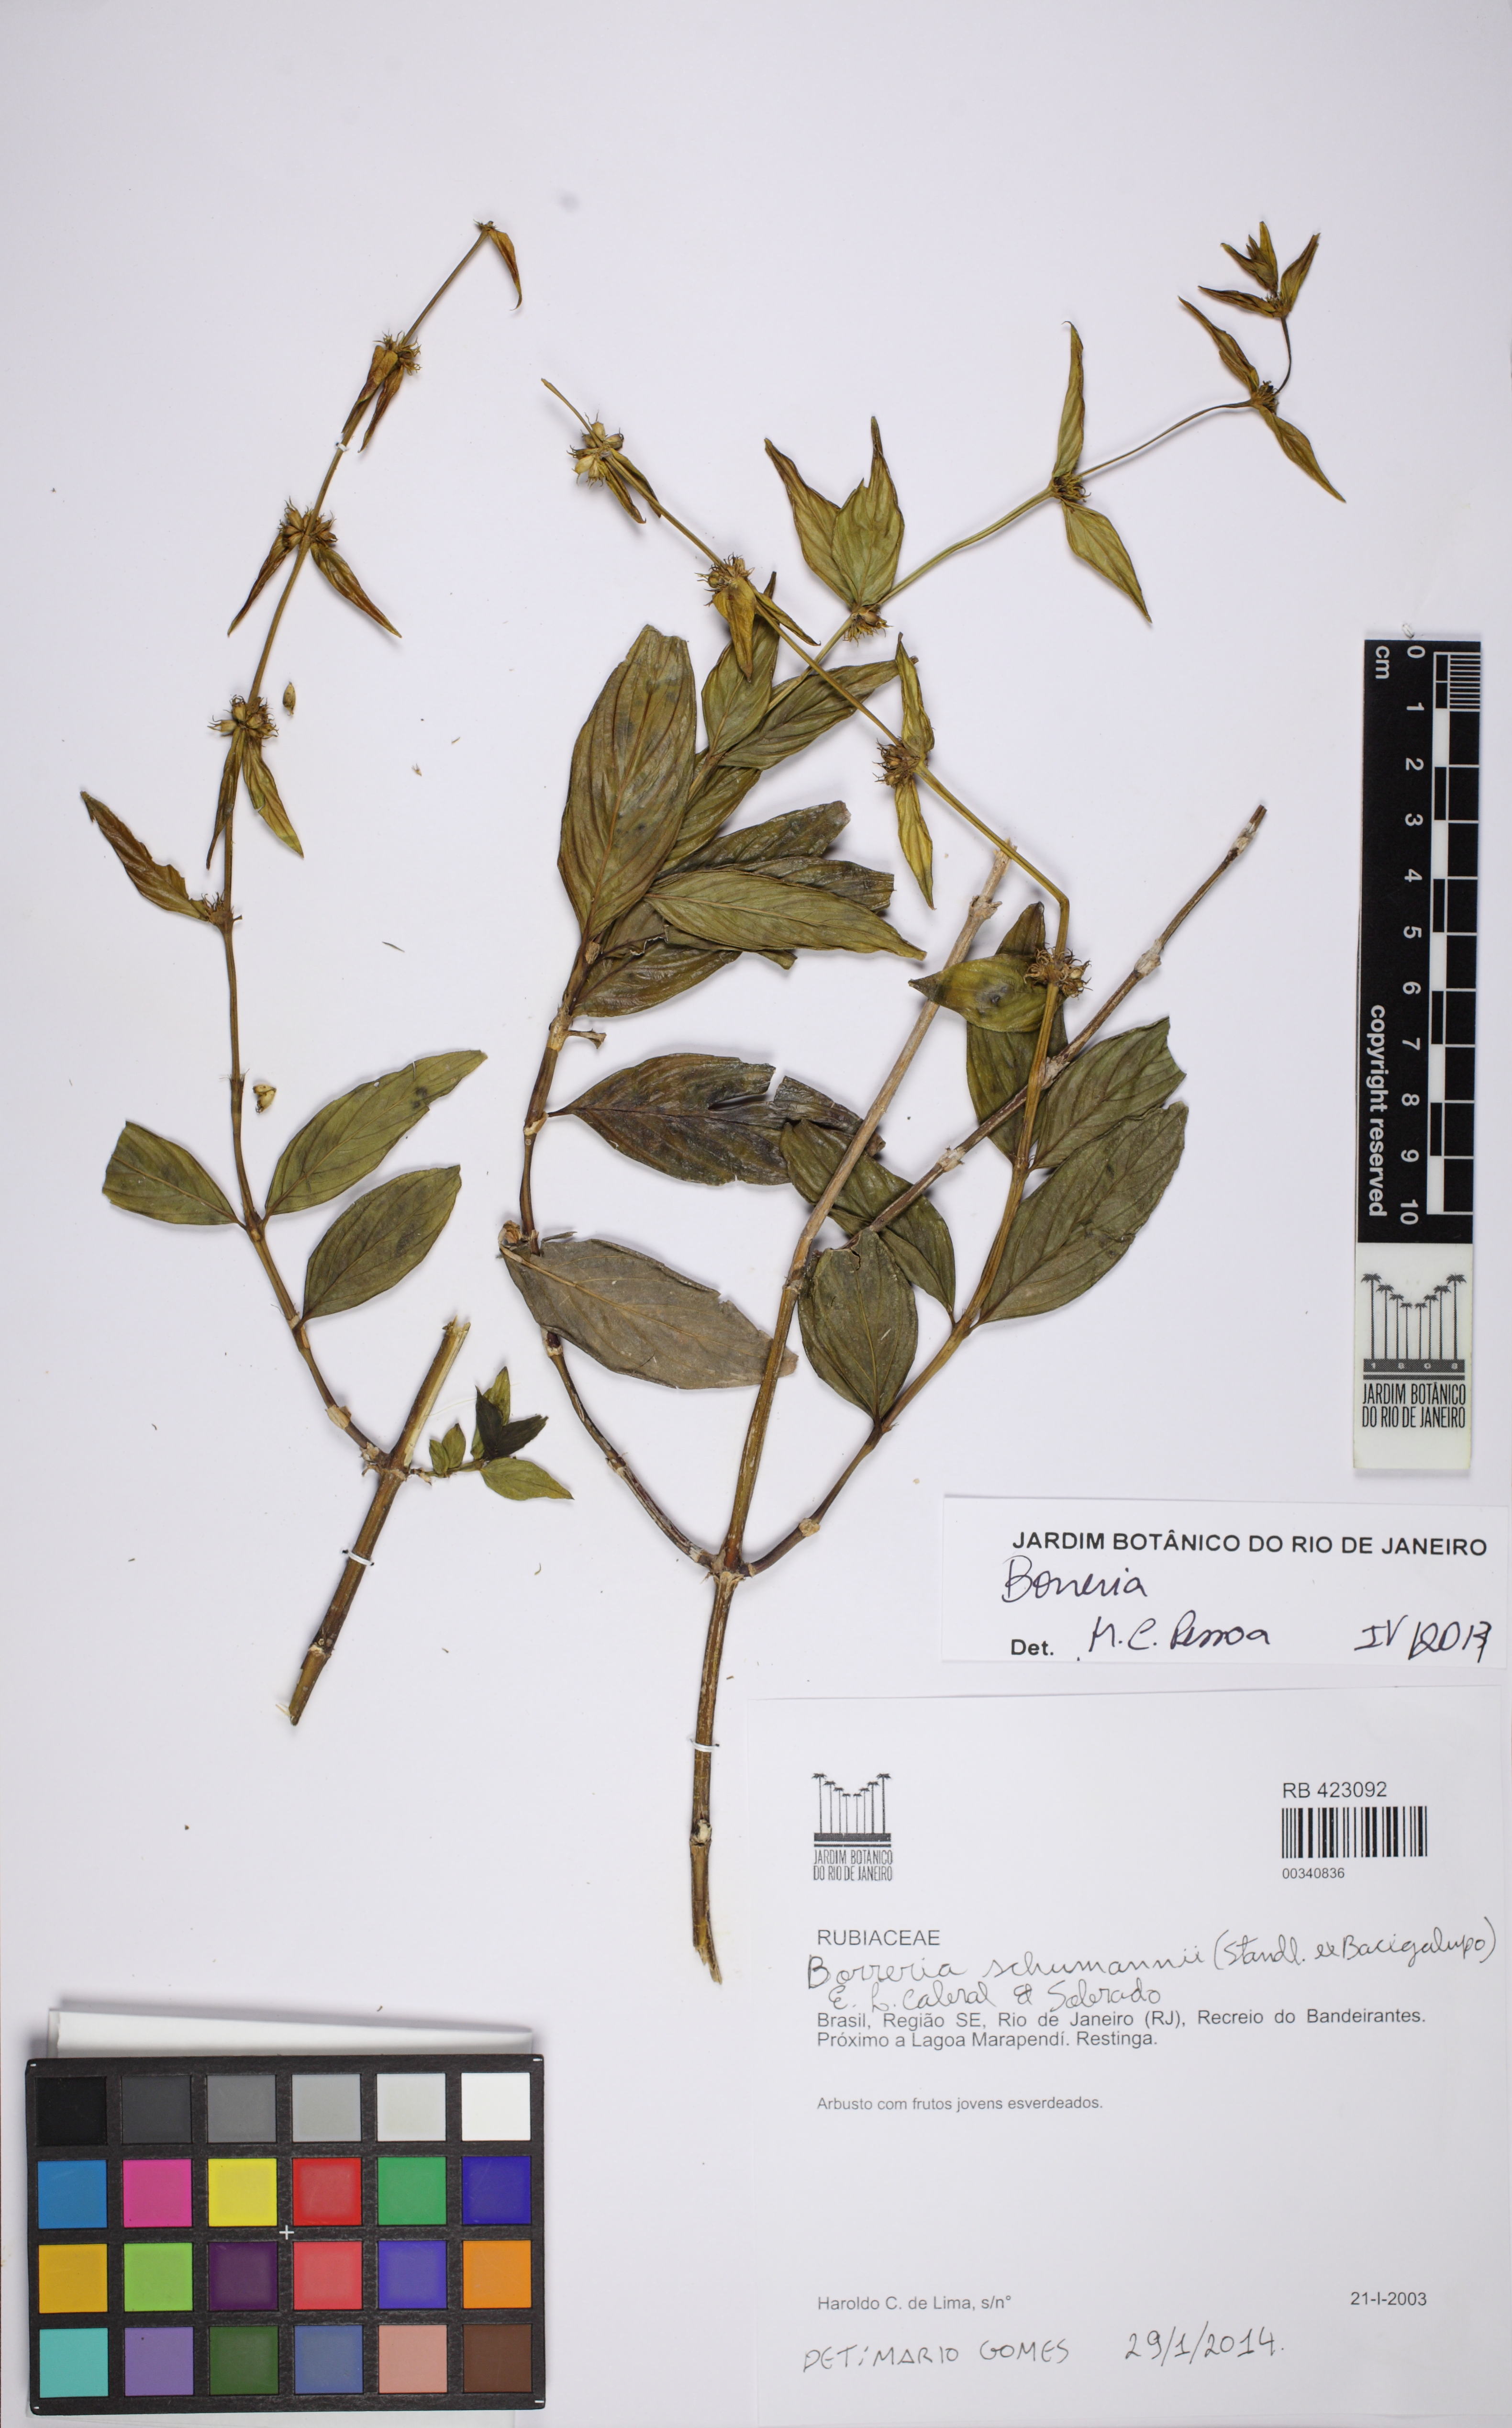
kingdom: Plantae
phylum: Tracheophyta
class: Magnoliopsida
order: Gentianales
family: Rubiaceae
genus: Spermacoce
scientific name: Spermacoce schumannii
